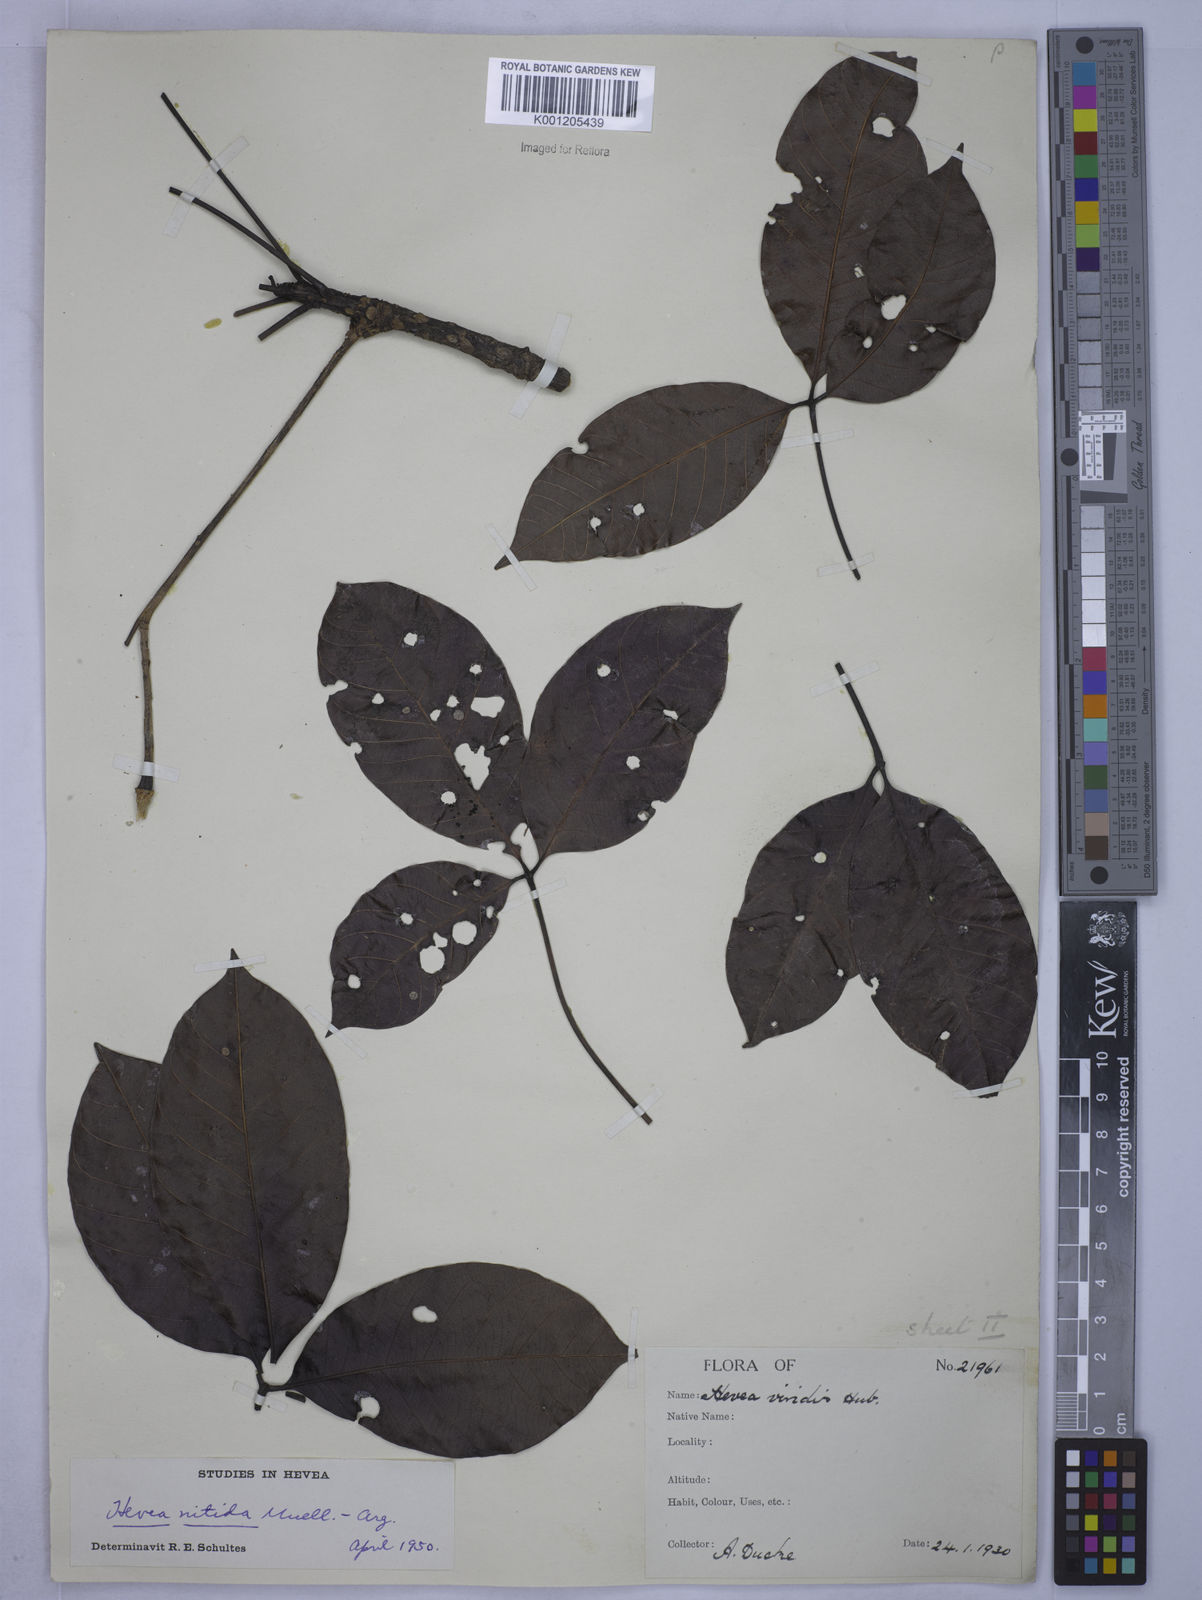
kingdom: Plantae
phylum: Tracheophyta
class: Magnoliopsida
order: Malpighiales
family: Euphorbiaceae
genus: Hevea
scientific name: Hevea
